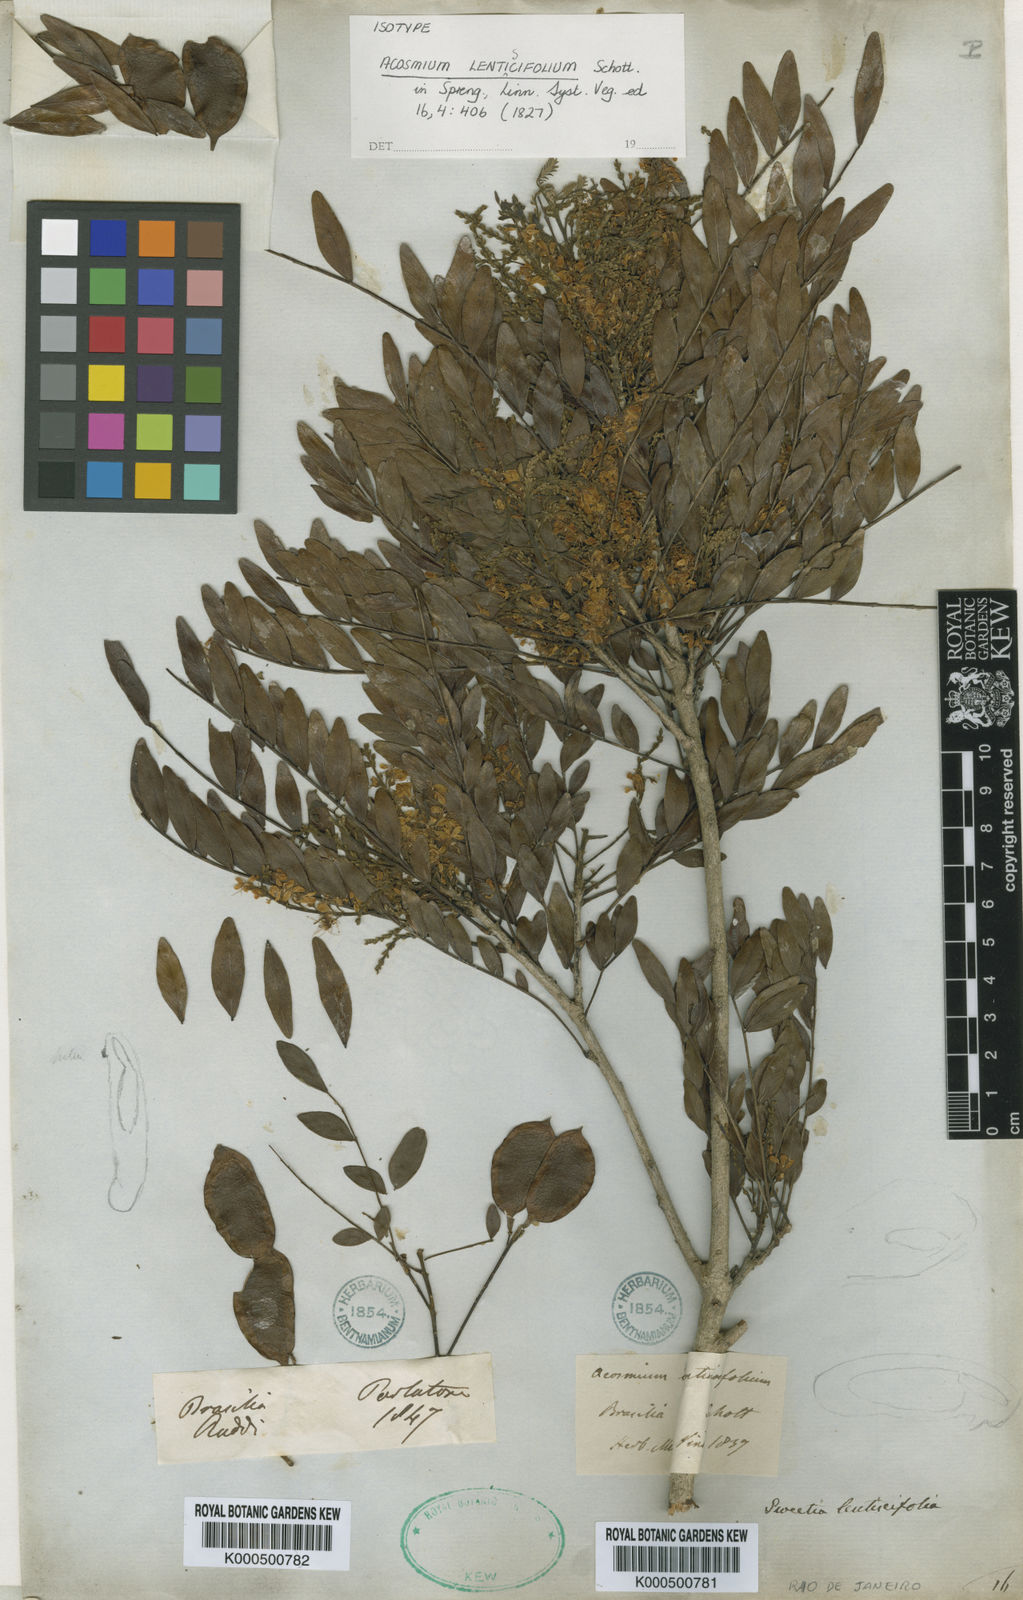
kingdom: Plantae
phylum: Tracheophyta
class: Magnoliopsida
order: Fabales
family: Fabaceae
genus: Acosmium
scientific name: Acosmium lentiscifolium
